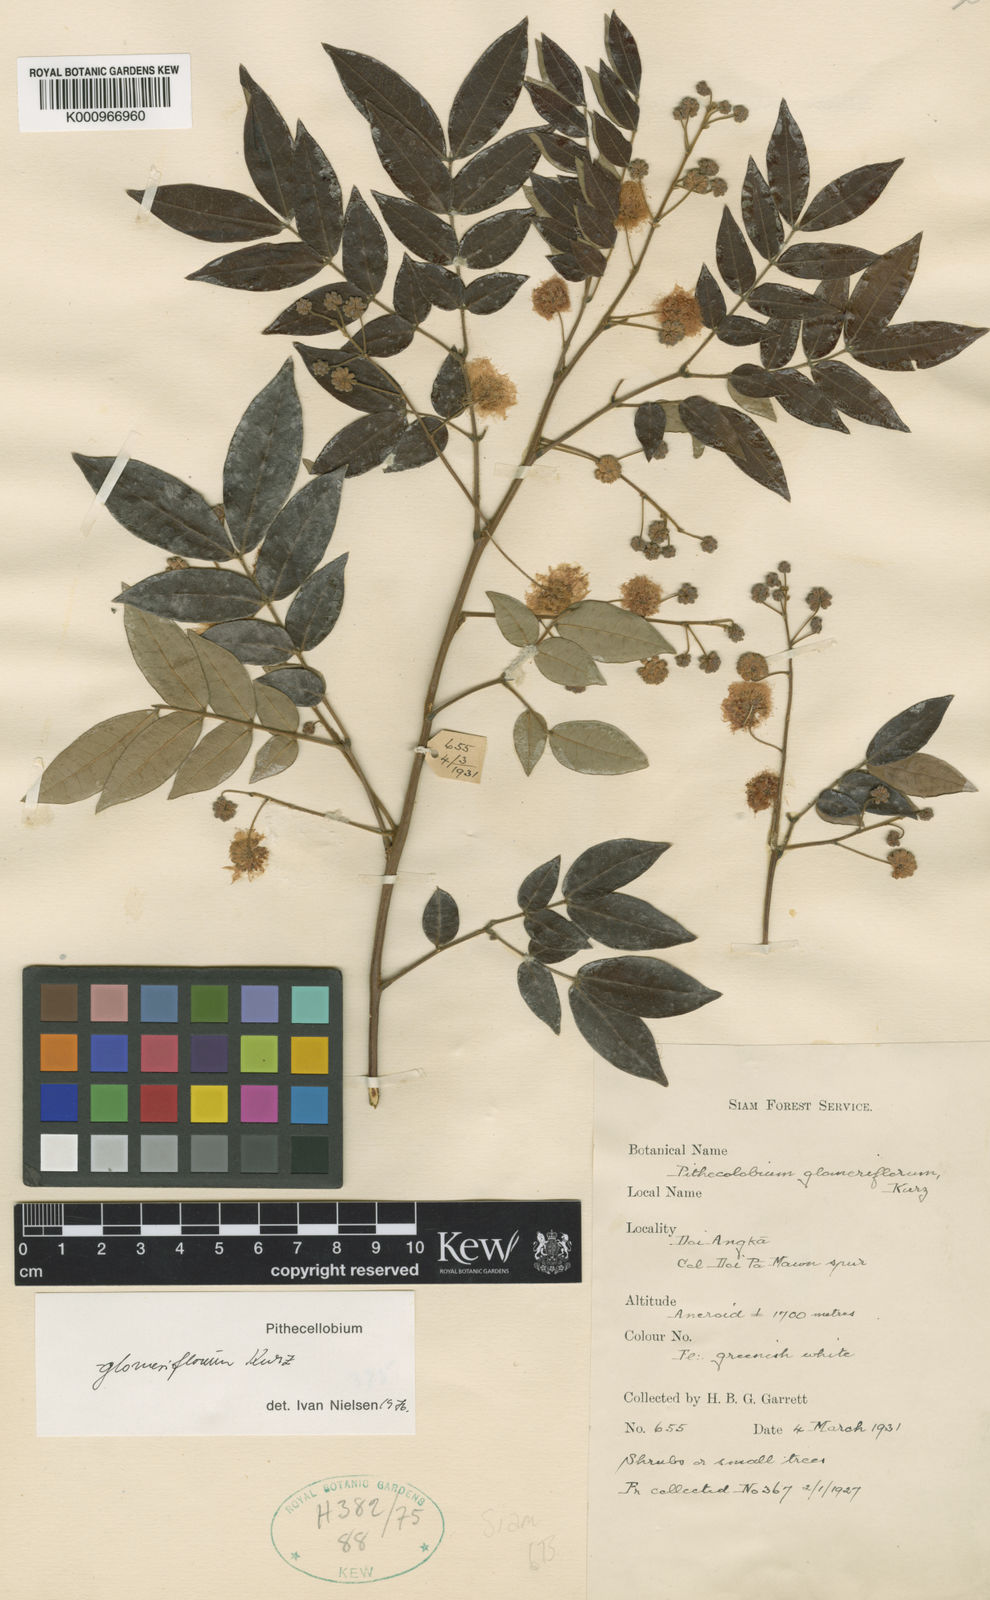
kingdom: Plantae
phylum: Tracheophyta
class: Magnoliopsida
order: Fabales
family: Fabaceae
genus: Archidendron
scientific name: Archidendron glomeriflorum
